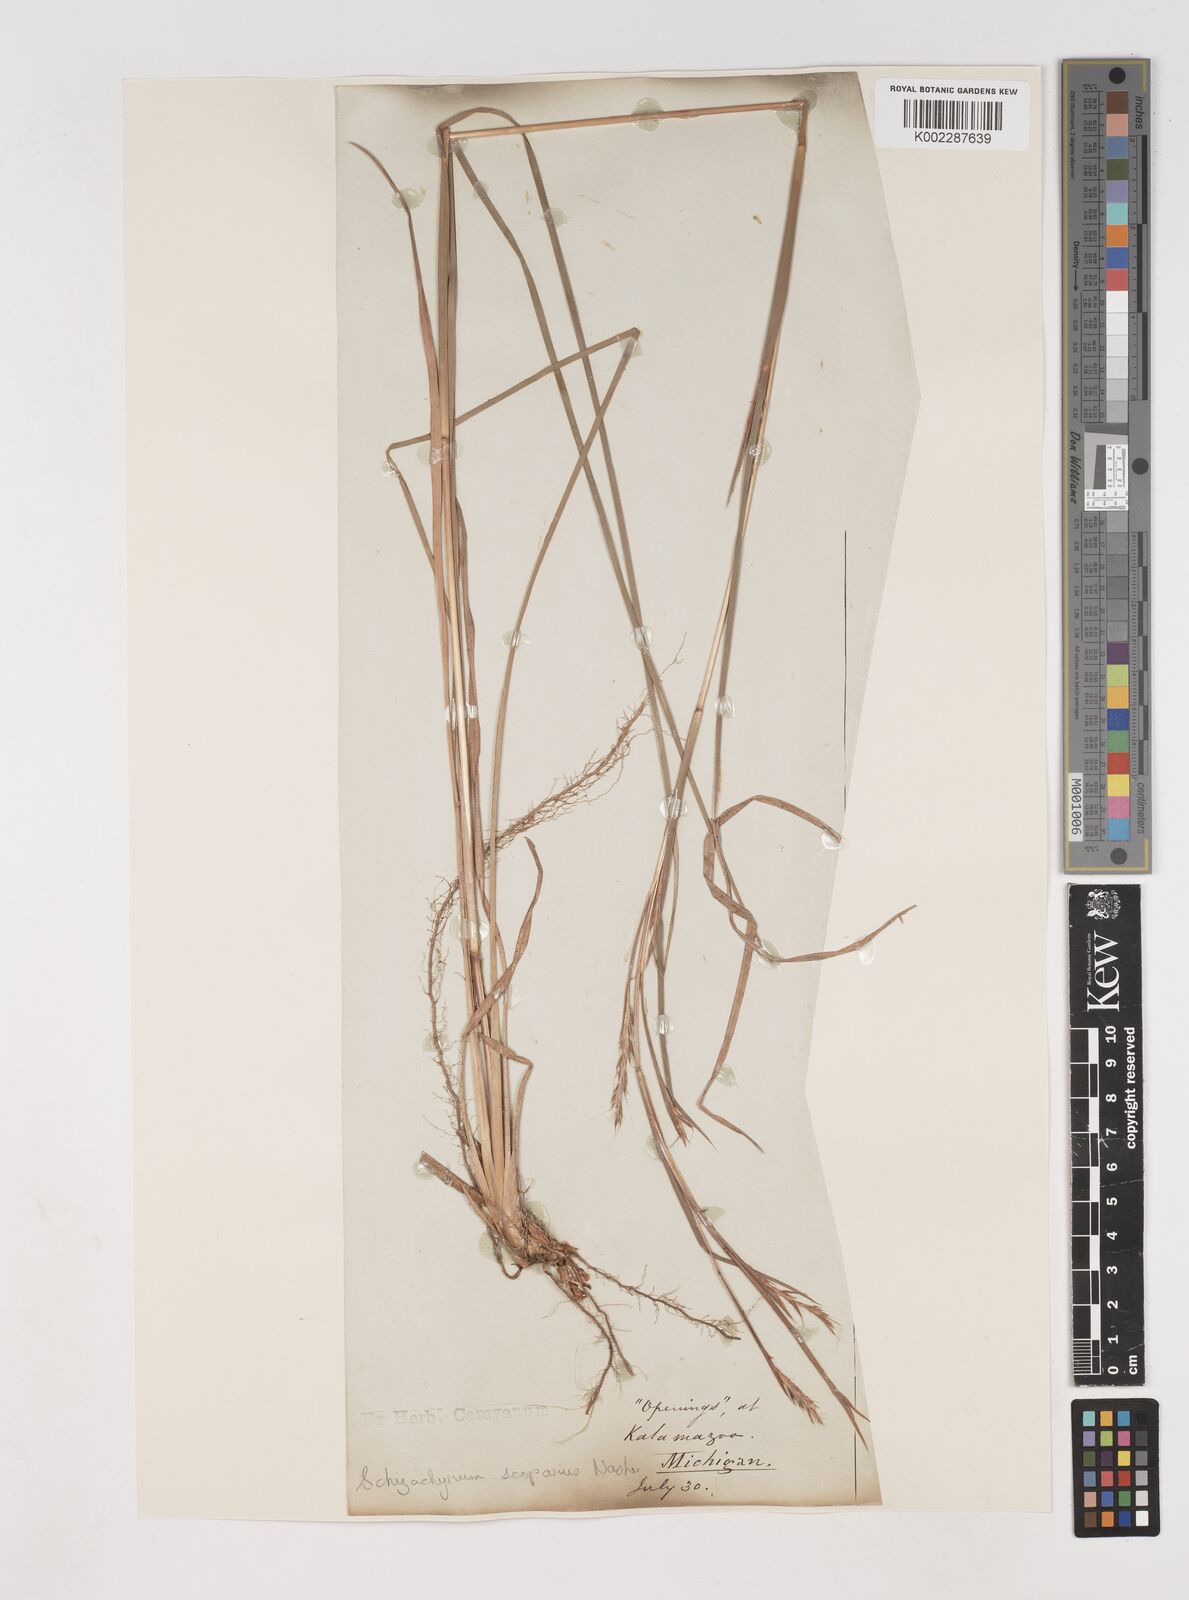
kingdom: Plantae
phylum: Tracheophyta
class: Liliopsida
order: Poales
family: Poaceae
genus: Schizachyrium
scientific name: Schizachyrium scoparium
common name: Little bluestem
